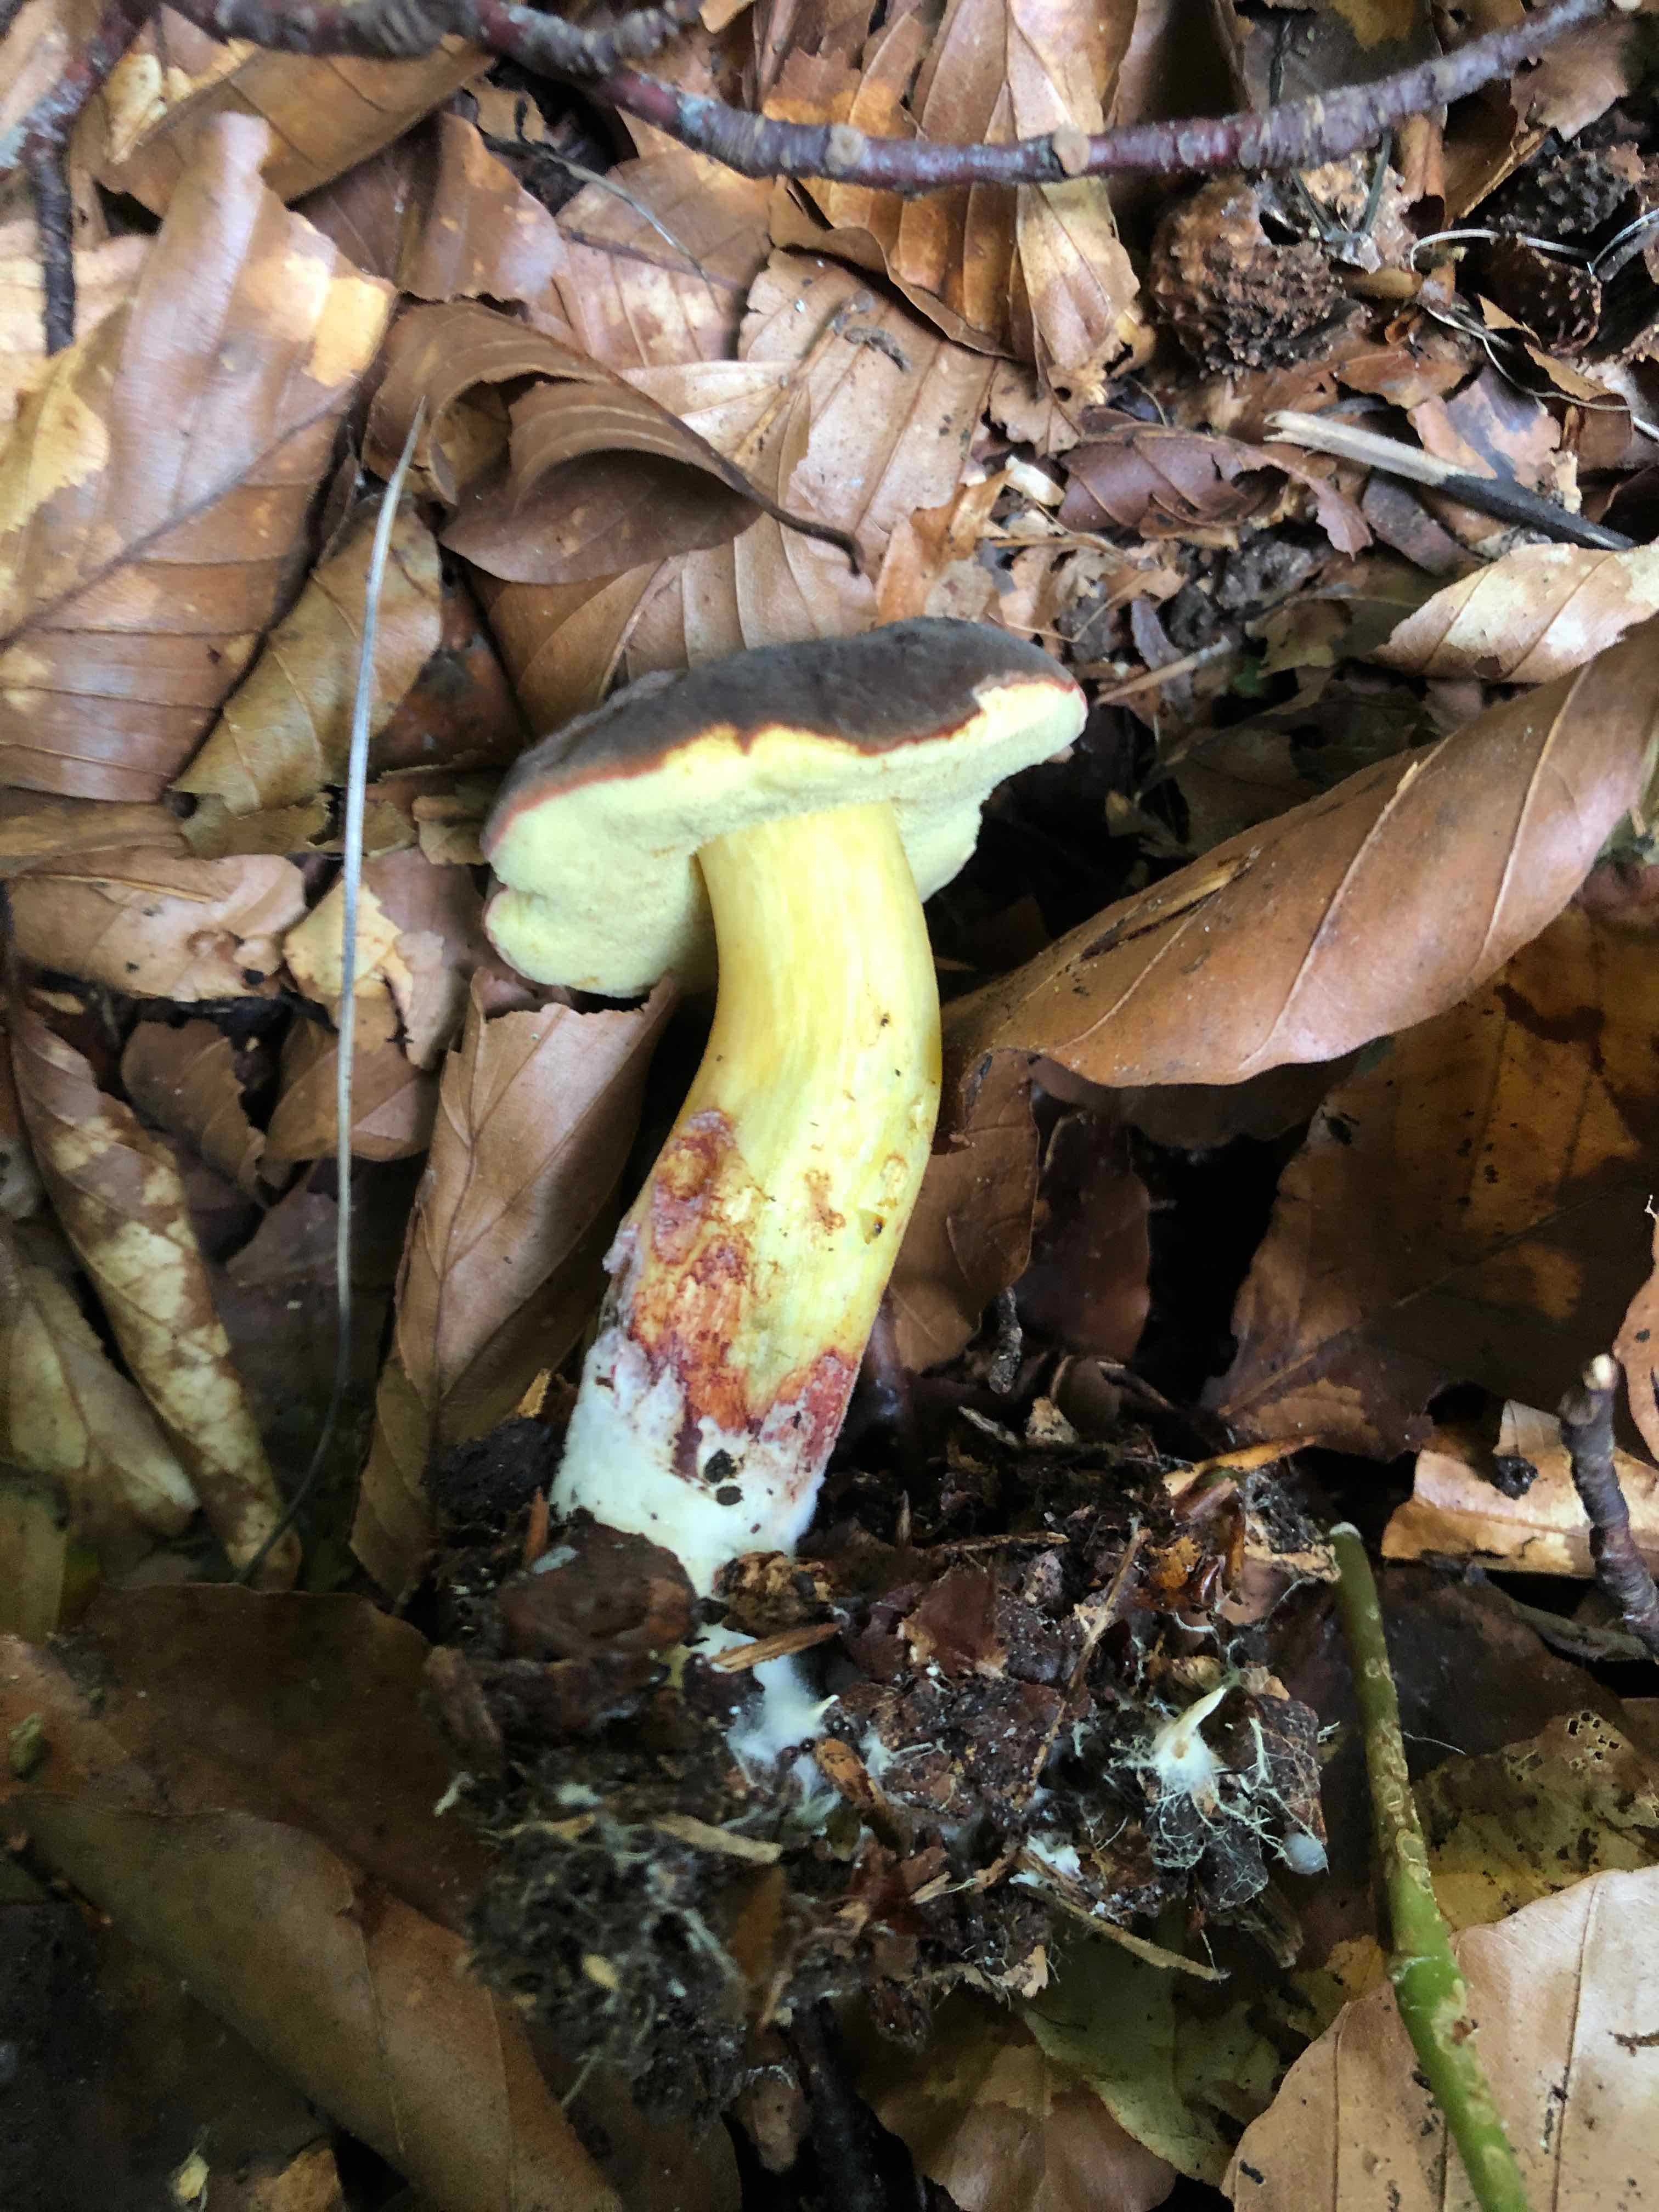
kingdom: Fungi
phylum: Basidiomycota
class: Agaricomycetes
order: Boletales
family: Boletaceae
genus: Xerocomellus
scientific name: Xerocomellus pruinatus
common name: dugget rørhat
